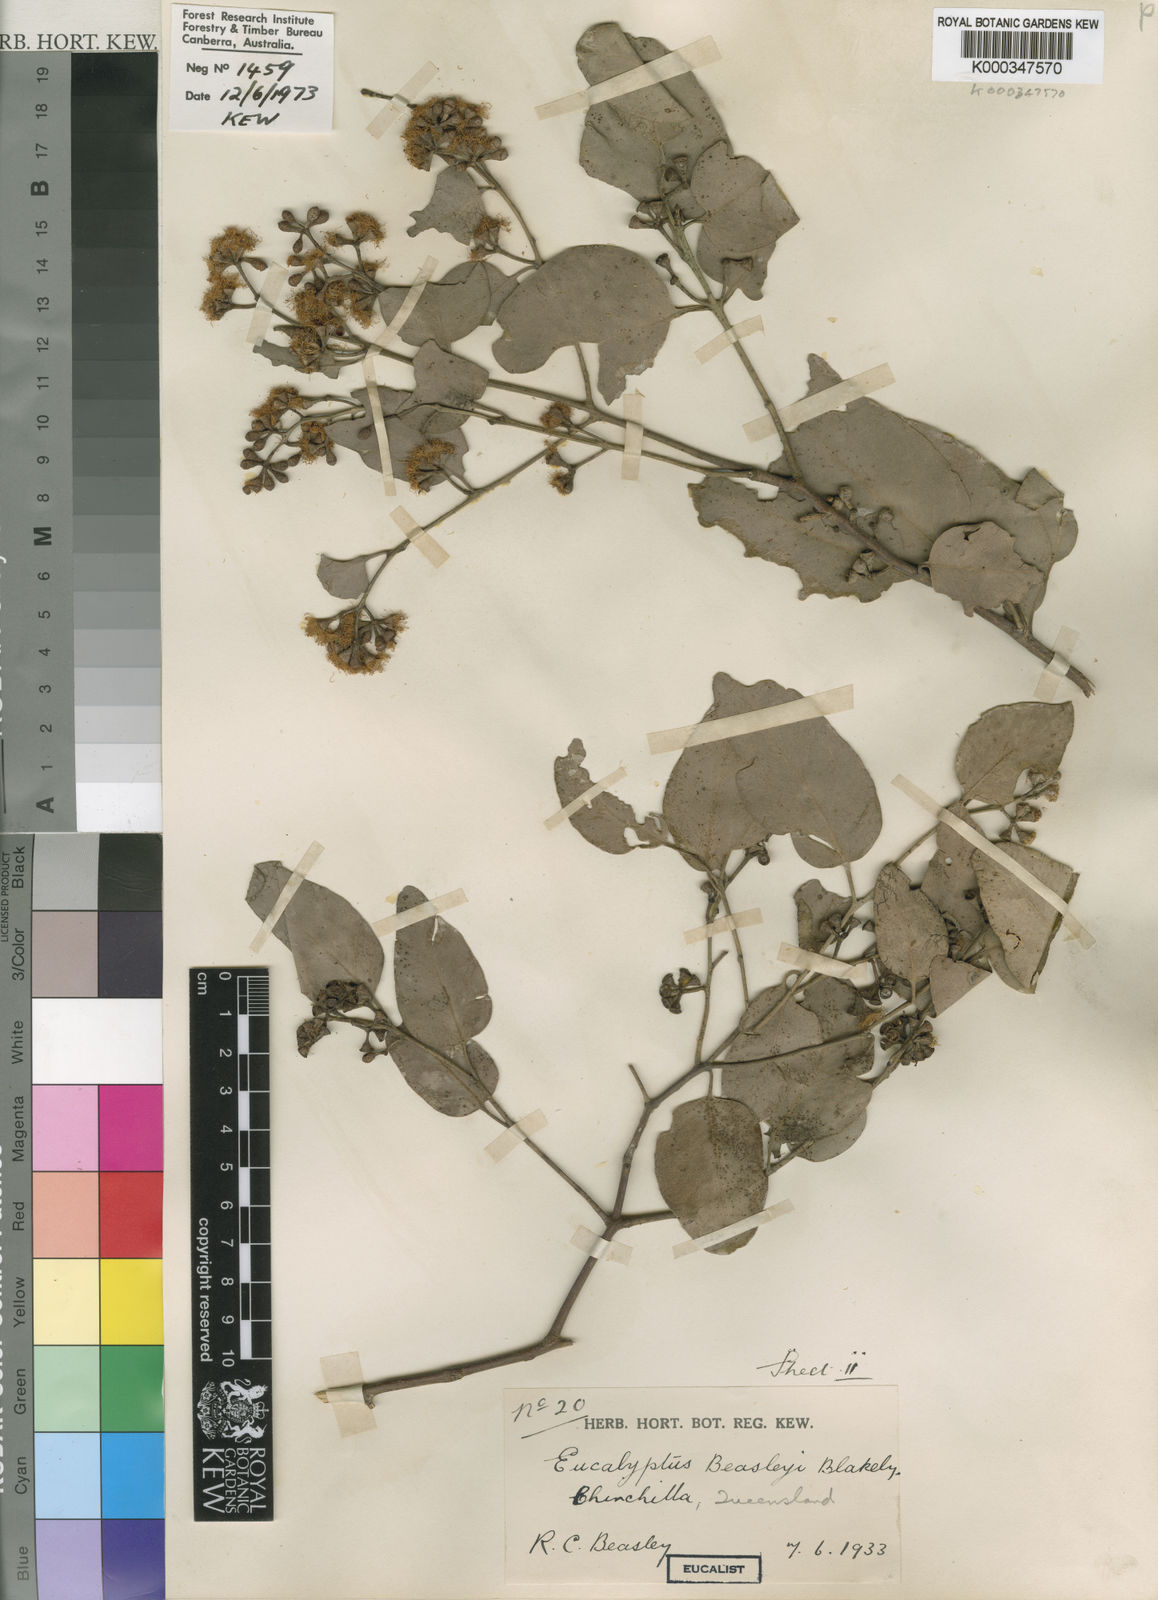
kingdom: Plantae
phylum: Tracheophyta
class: Magnoliopsida
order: Myrtales
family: Myrtaceae
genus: Eucalyptus
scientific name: Eucalyptus
